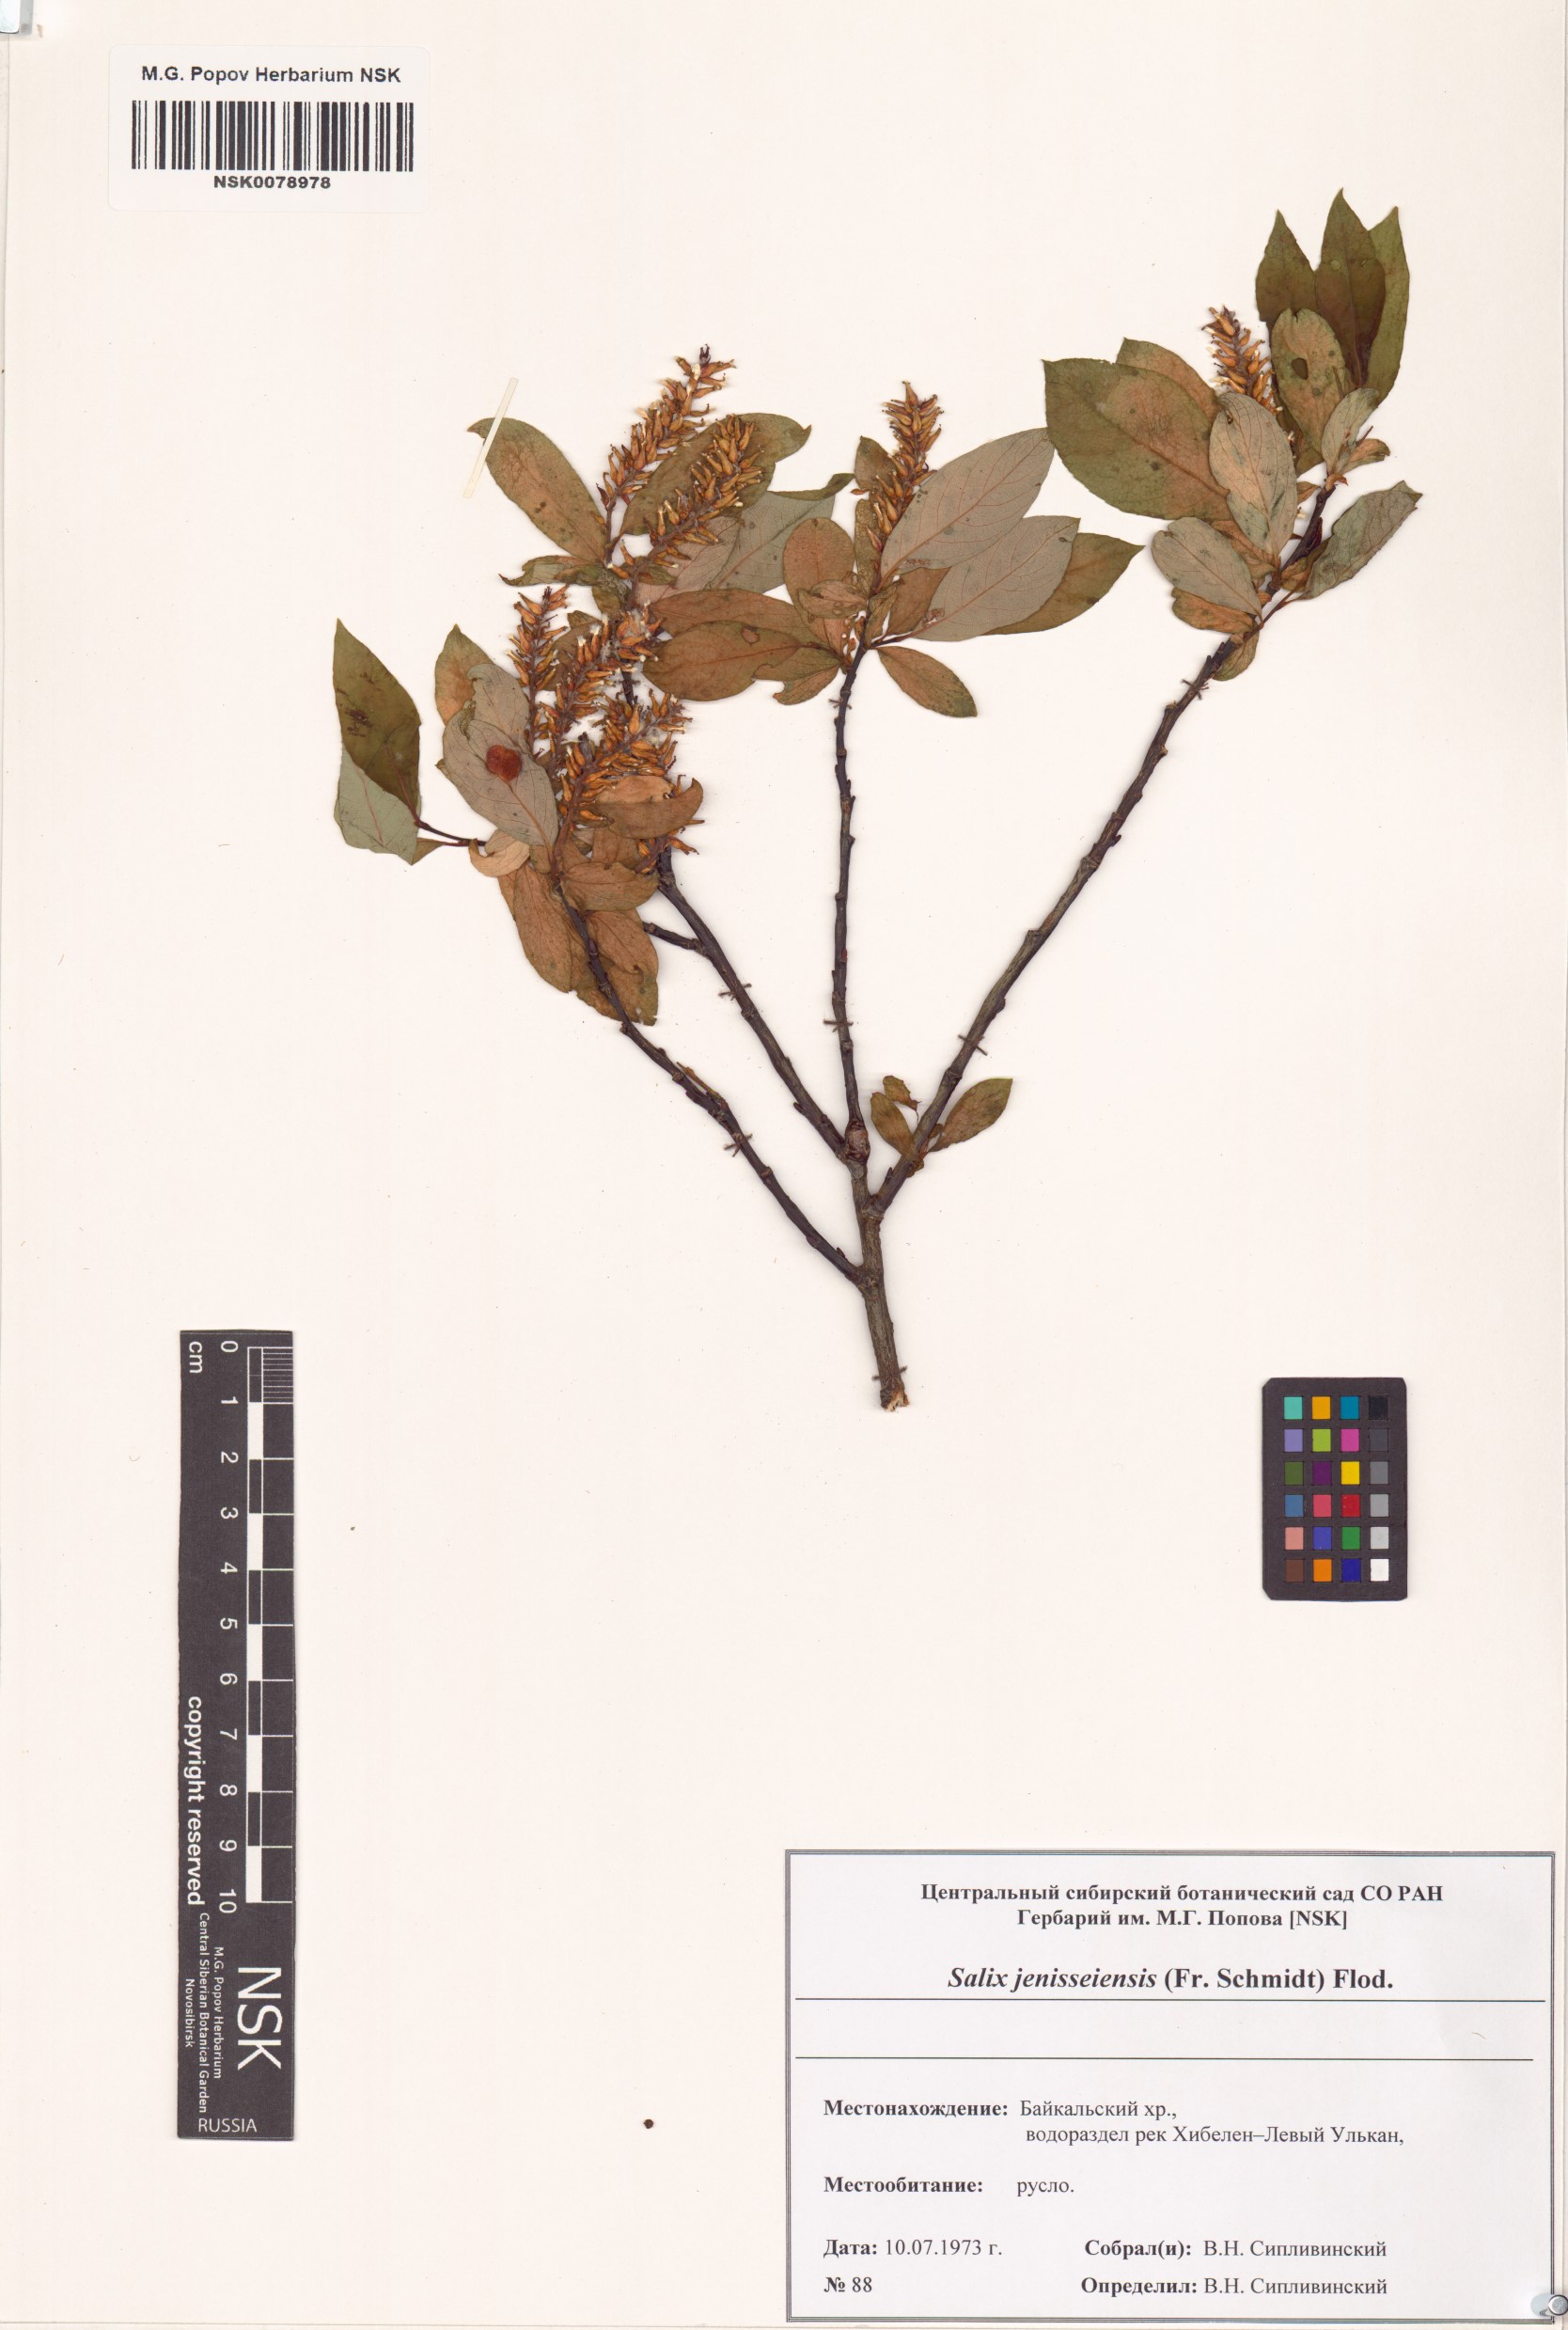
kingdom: Plantae
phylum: Tracheophyta
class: Magnoliopsida
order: Malpighiales
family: Salicaceae
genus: Salix
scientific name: Salix jenisseensis
